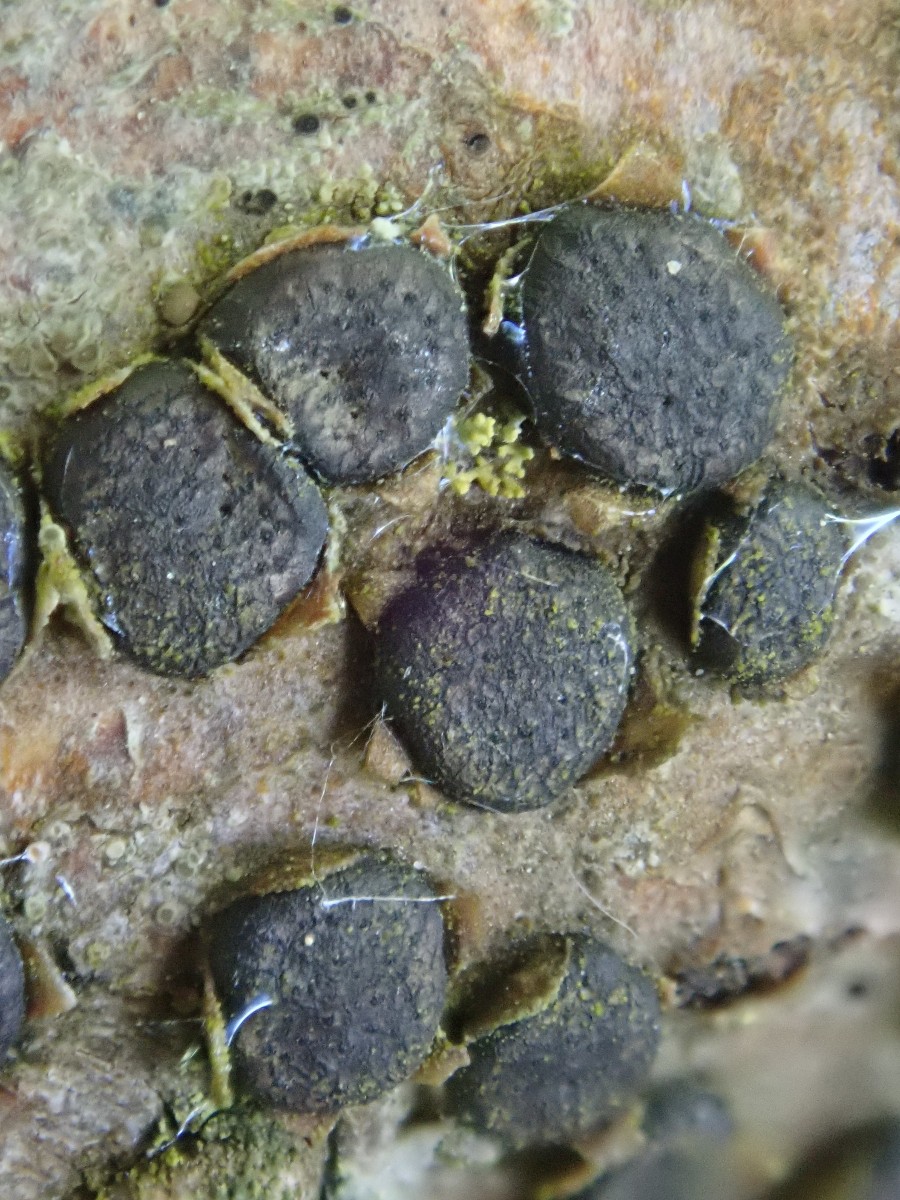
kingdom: Fungi
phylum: Ascomycota
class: Sordariomycetes
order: Xylariales
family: Diatrypaceae
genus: Diatrype
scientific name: Diatrype disciformis
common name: kant-kulskorpe
